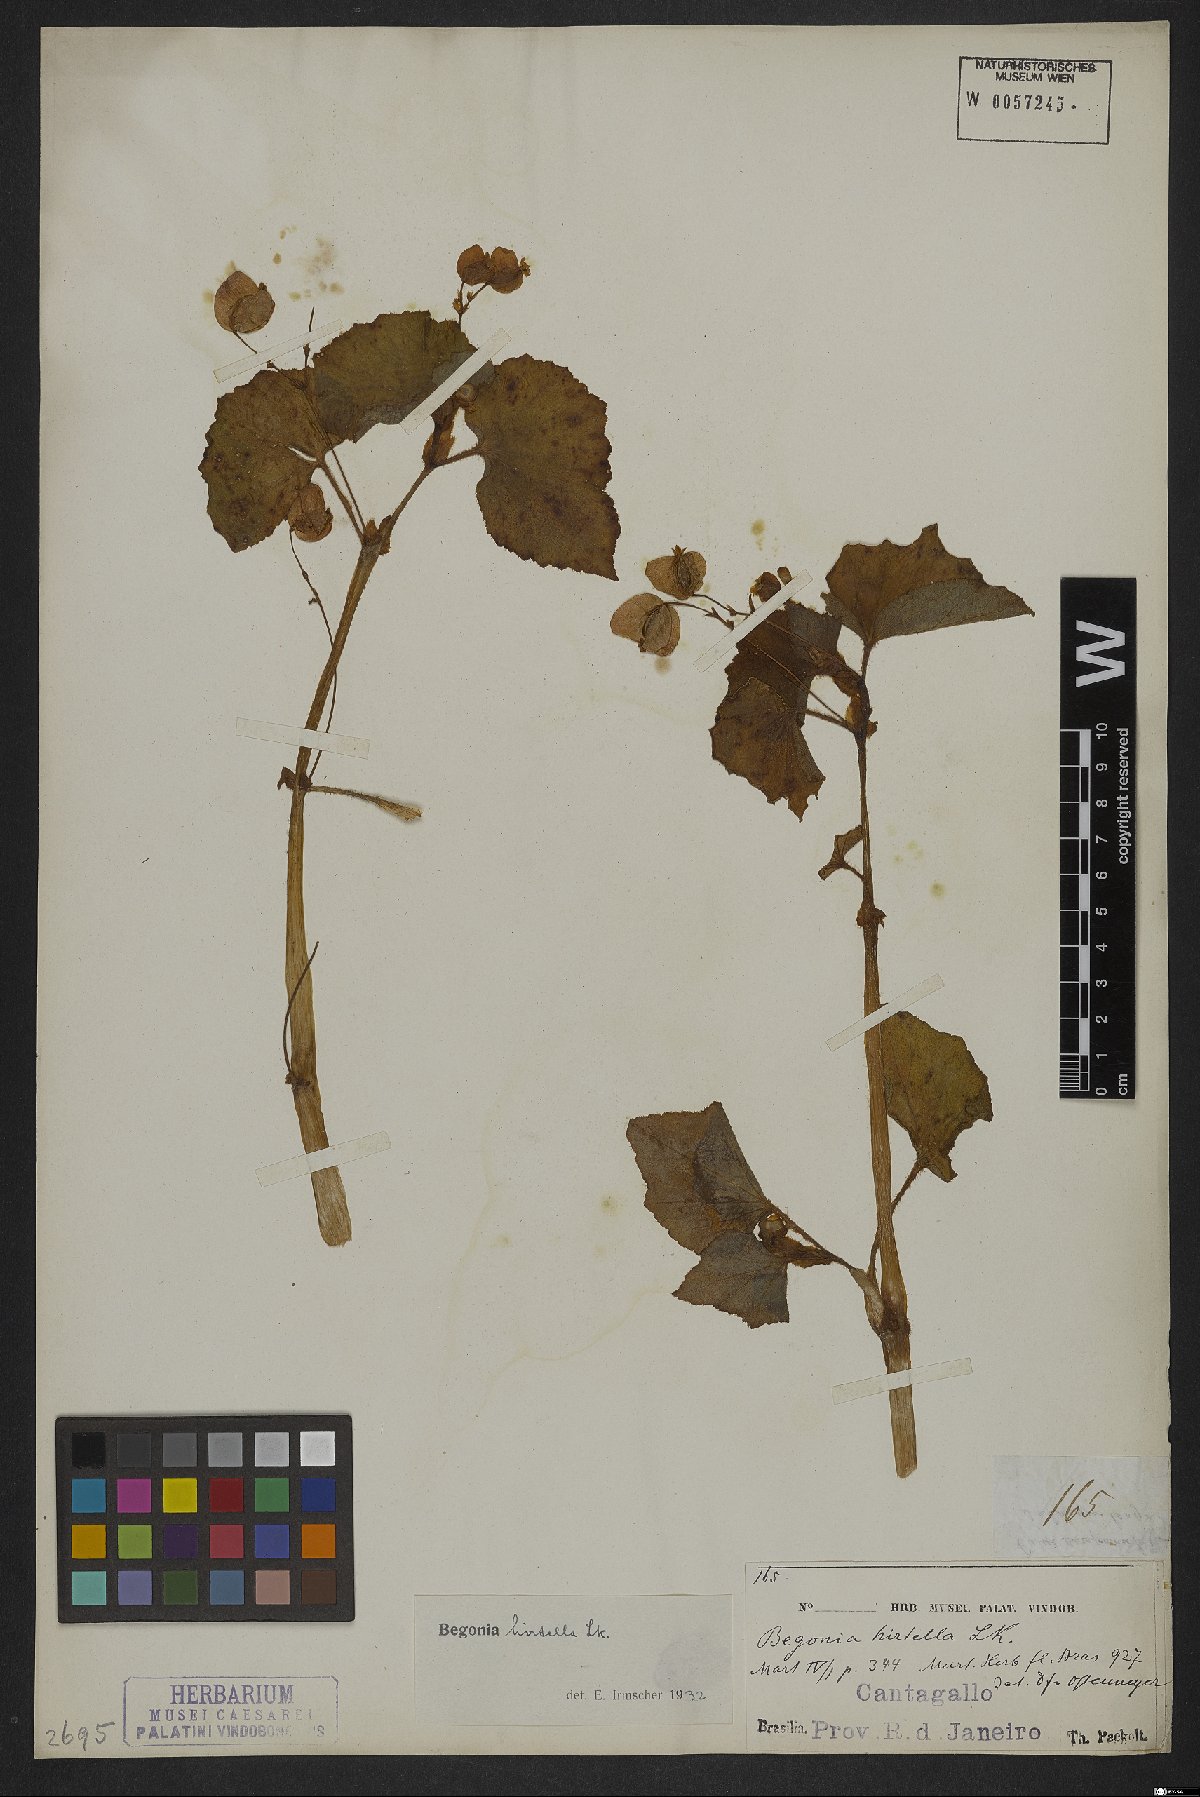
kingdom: Plantae
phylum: Tracheophyta
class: Magnoliopsida
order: Cucurbitales
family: Begoniaceae
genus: Begonia
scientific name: Begonia hirtella
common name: Brazilian begonia
